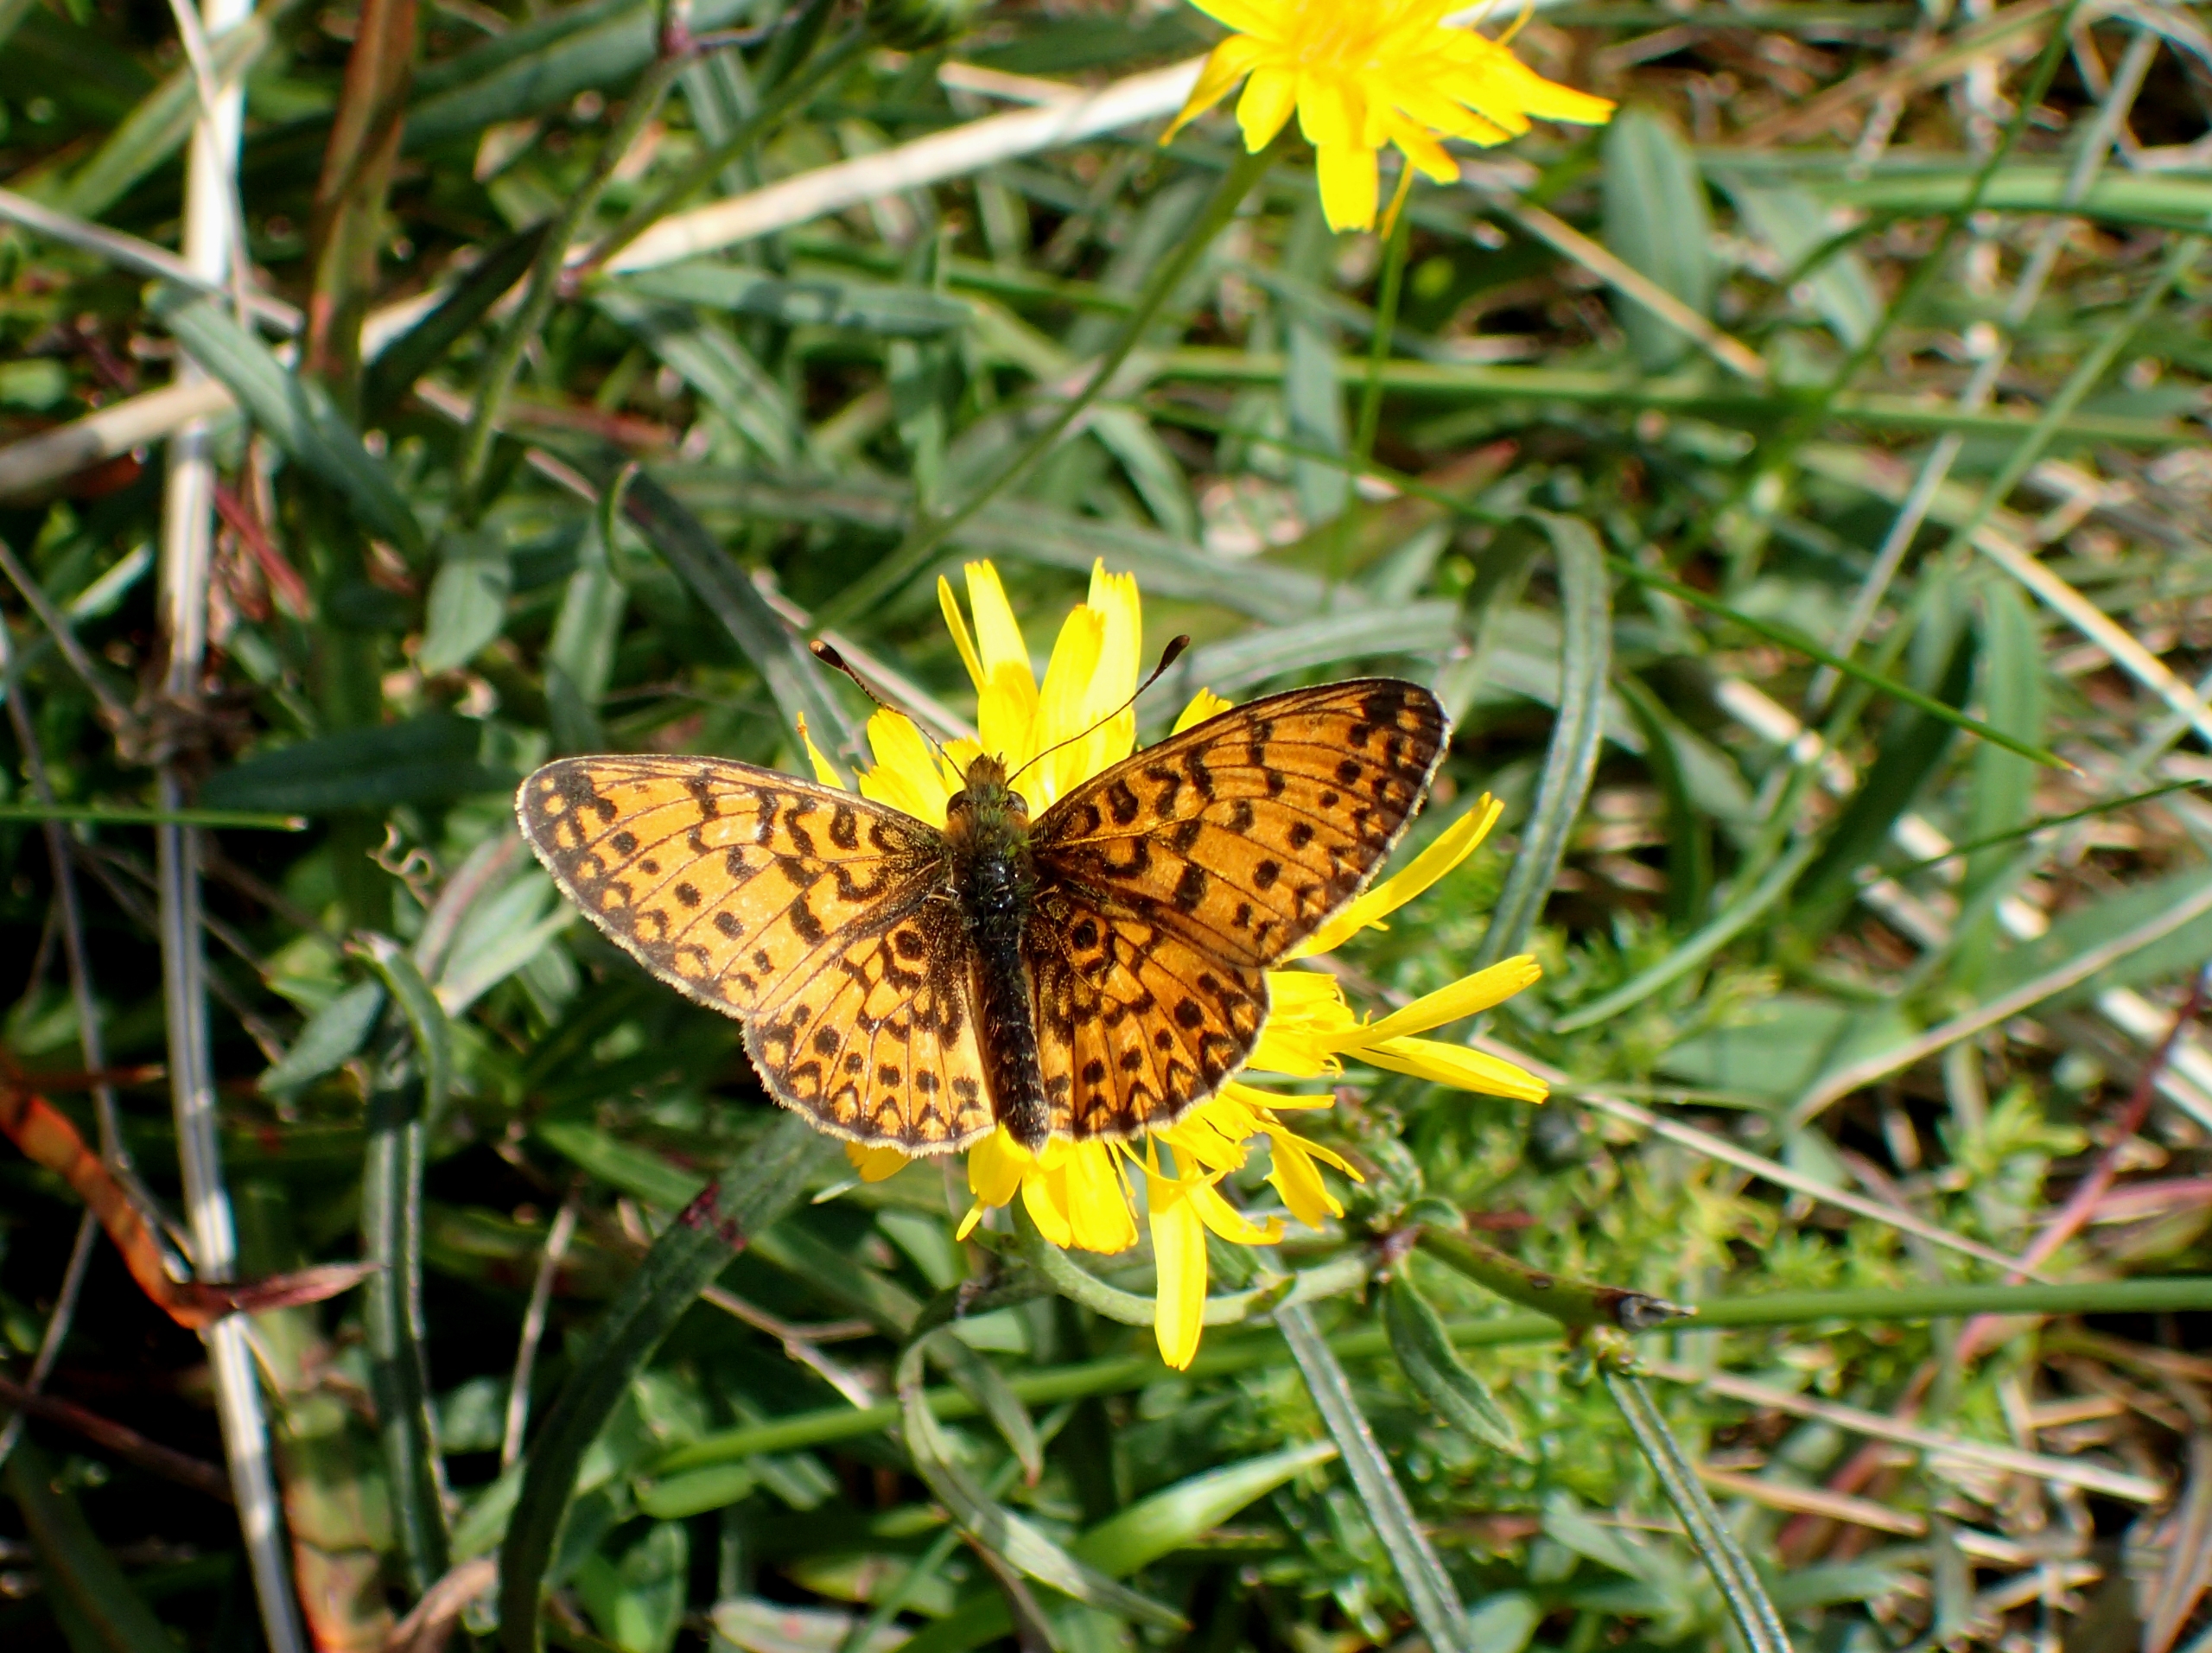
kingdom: Animalia
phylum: Arthropoda
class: Insecta
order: Lepidoptera
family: Nymphalidae
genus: Boloria
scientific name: Boloria selene
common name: Brunlig perlemorsommerfugl
